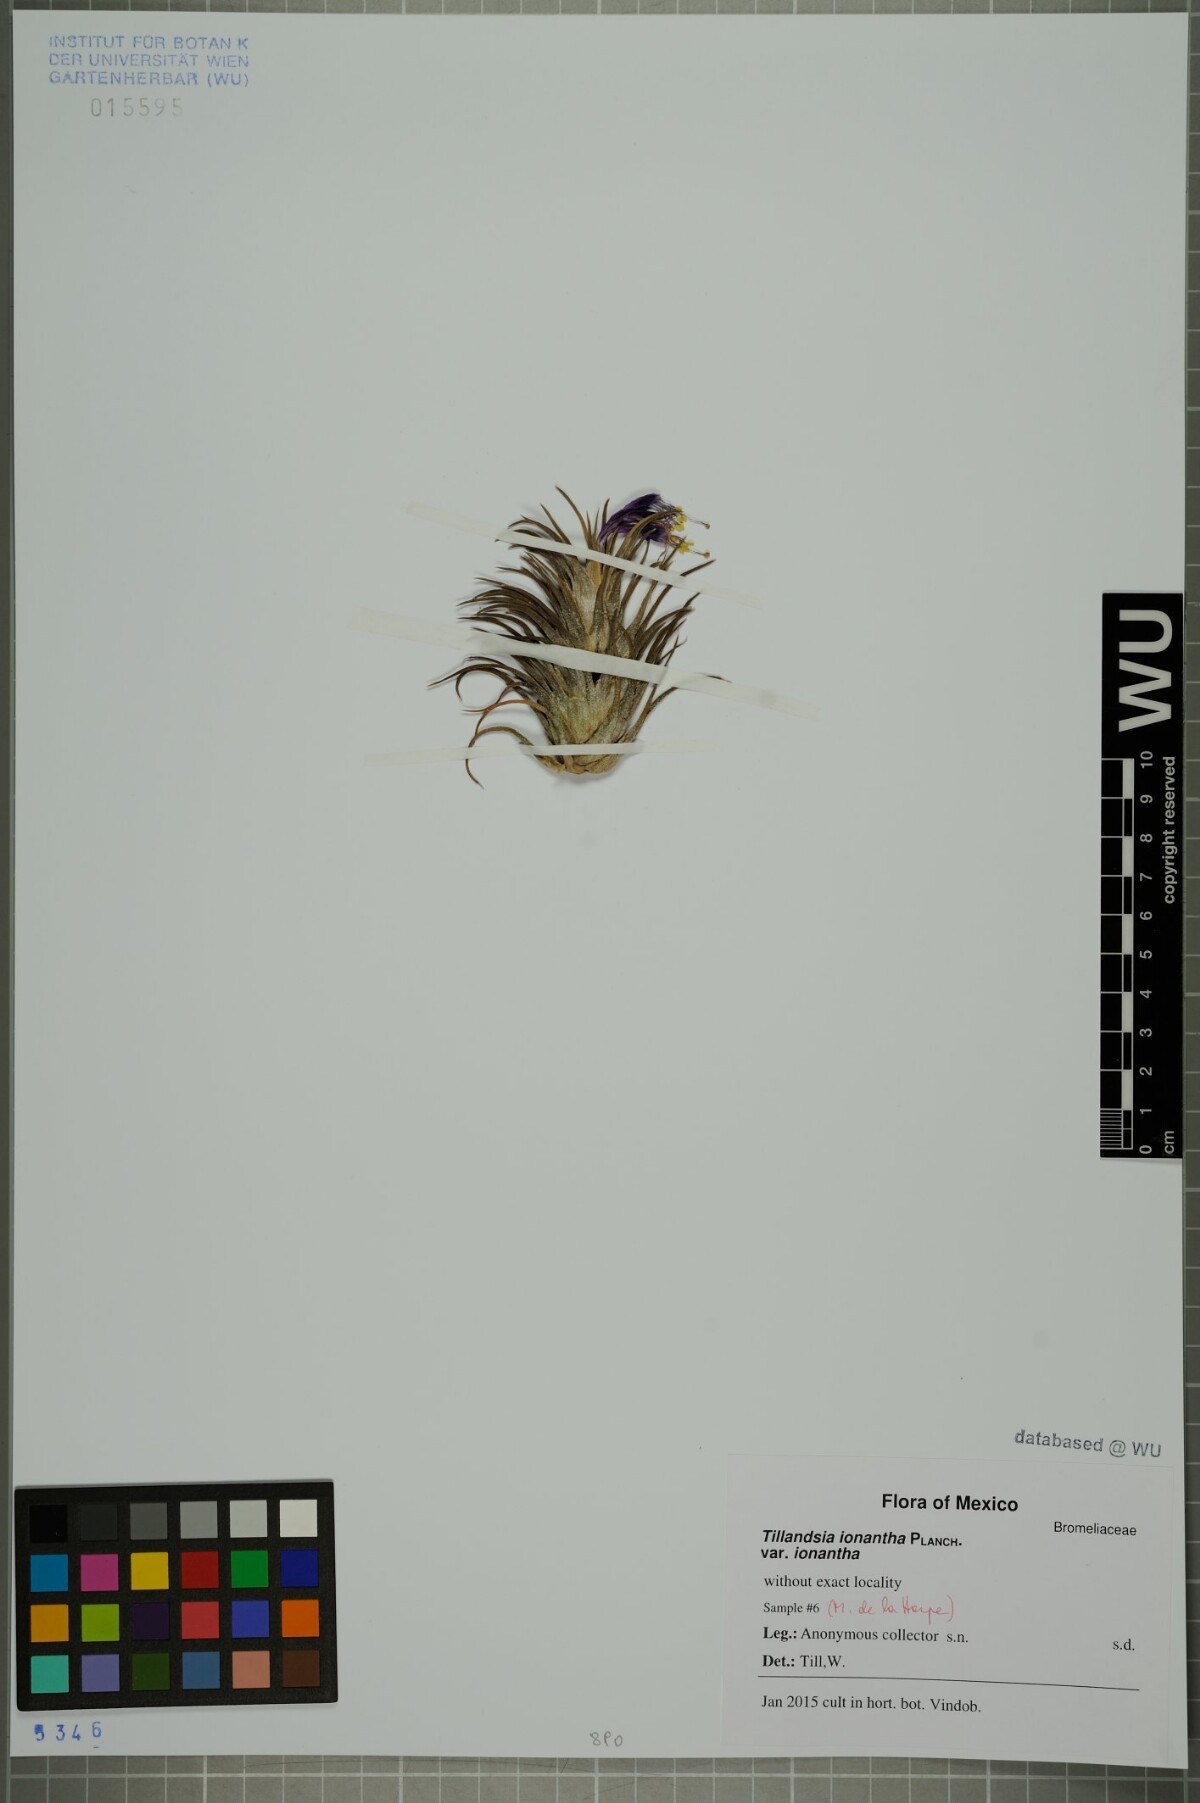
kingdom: Plantae
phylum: Tracheophyta
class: Liliopsida
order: Poales
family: Bromeliaceae
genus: Tillandsia
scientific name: Tillandsia ionantha
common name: Sky plant
